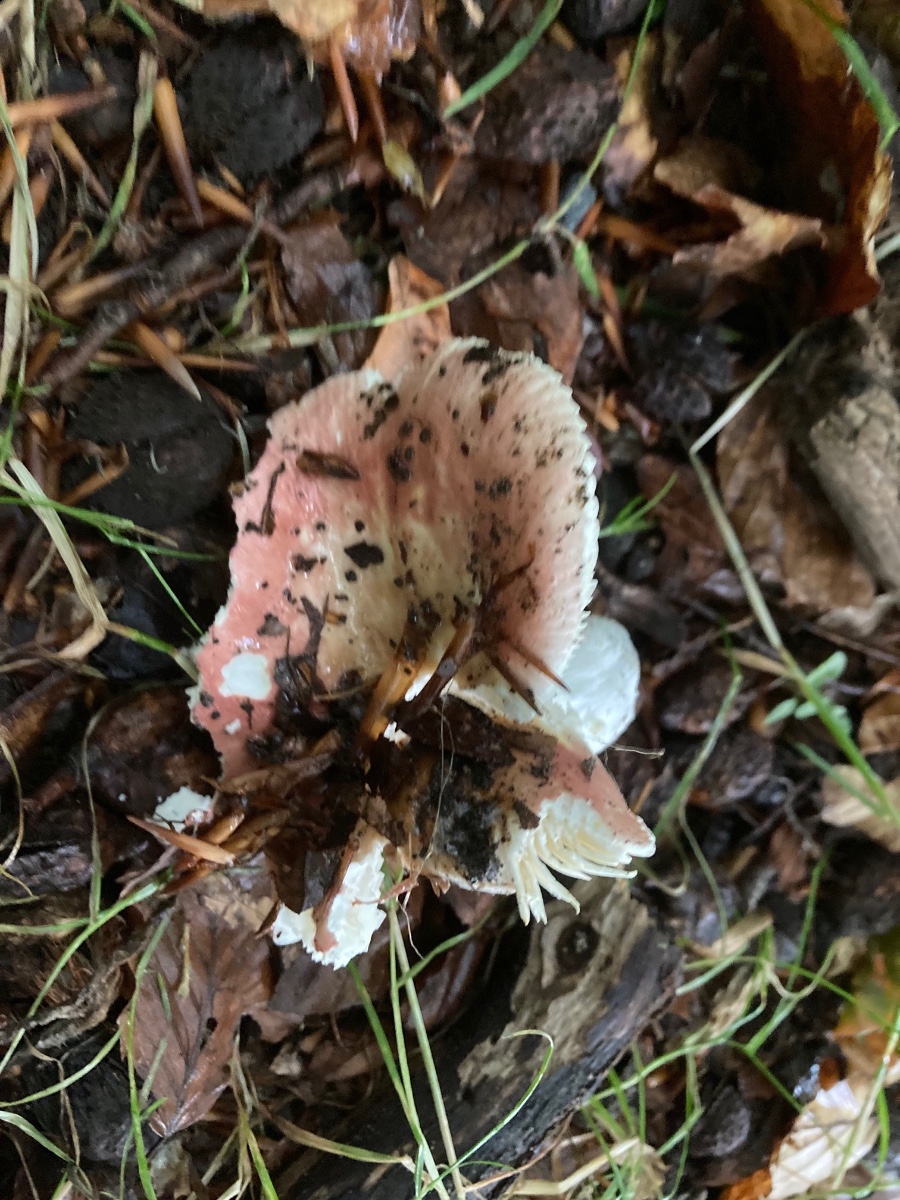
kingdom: Fungi
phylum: Basidiomycota
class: Agaricomycetes
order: Russulales
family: Russulaceae
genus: Russula
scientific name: Russula veternosa
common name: blødkødet skørhat
